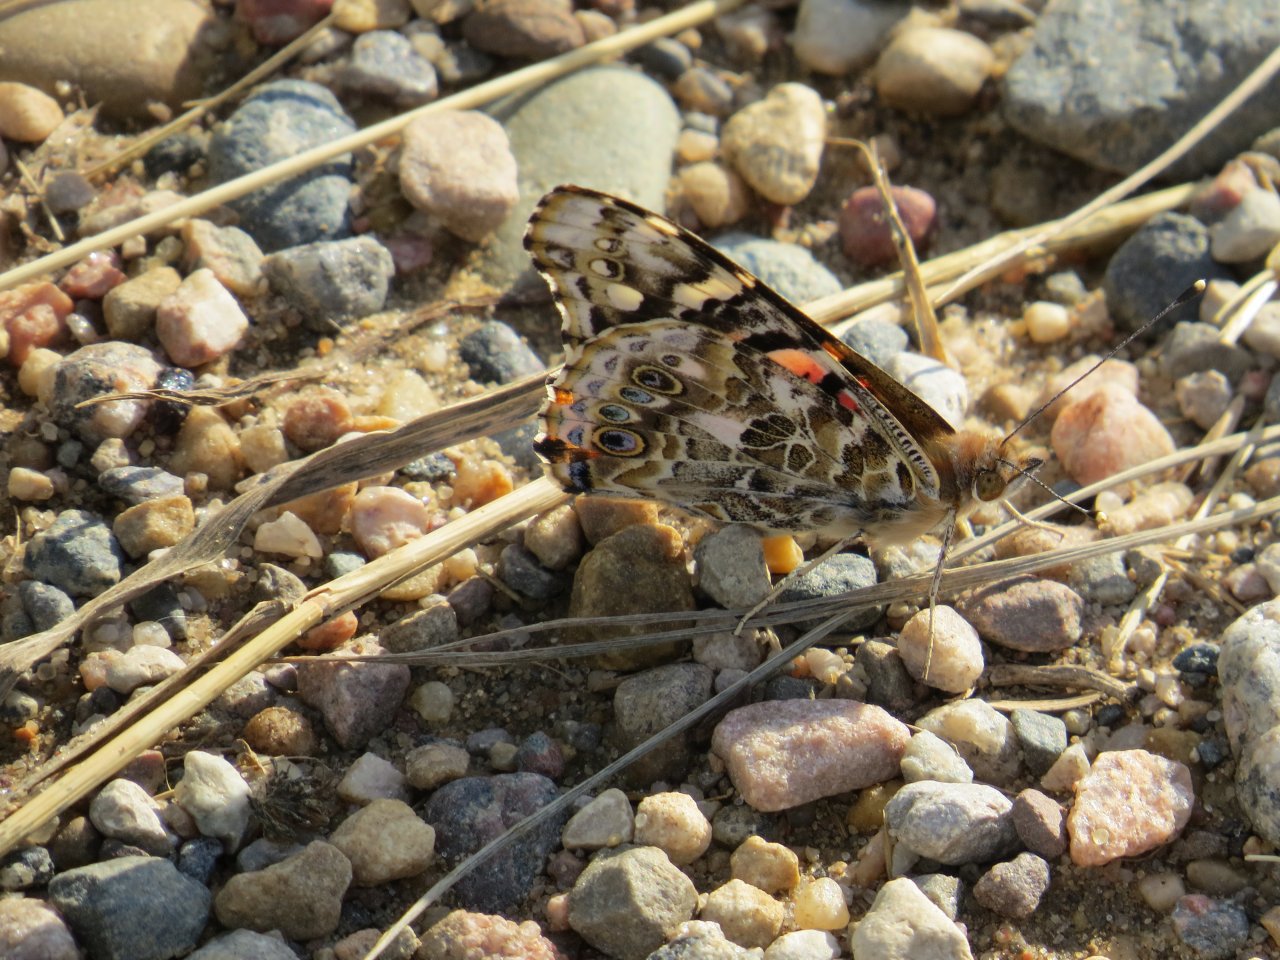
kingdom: Animalia
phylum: Arthropoda
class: Insecta
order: Lepidoptera
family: Nymphalidae
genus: Vanessa
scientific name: Vanessa cardui
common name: Painted Lady
